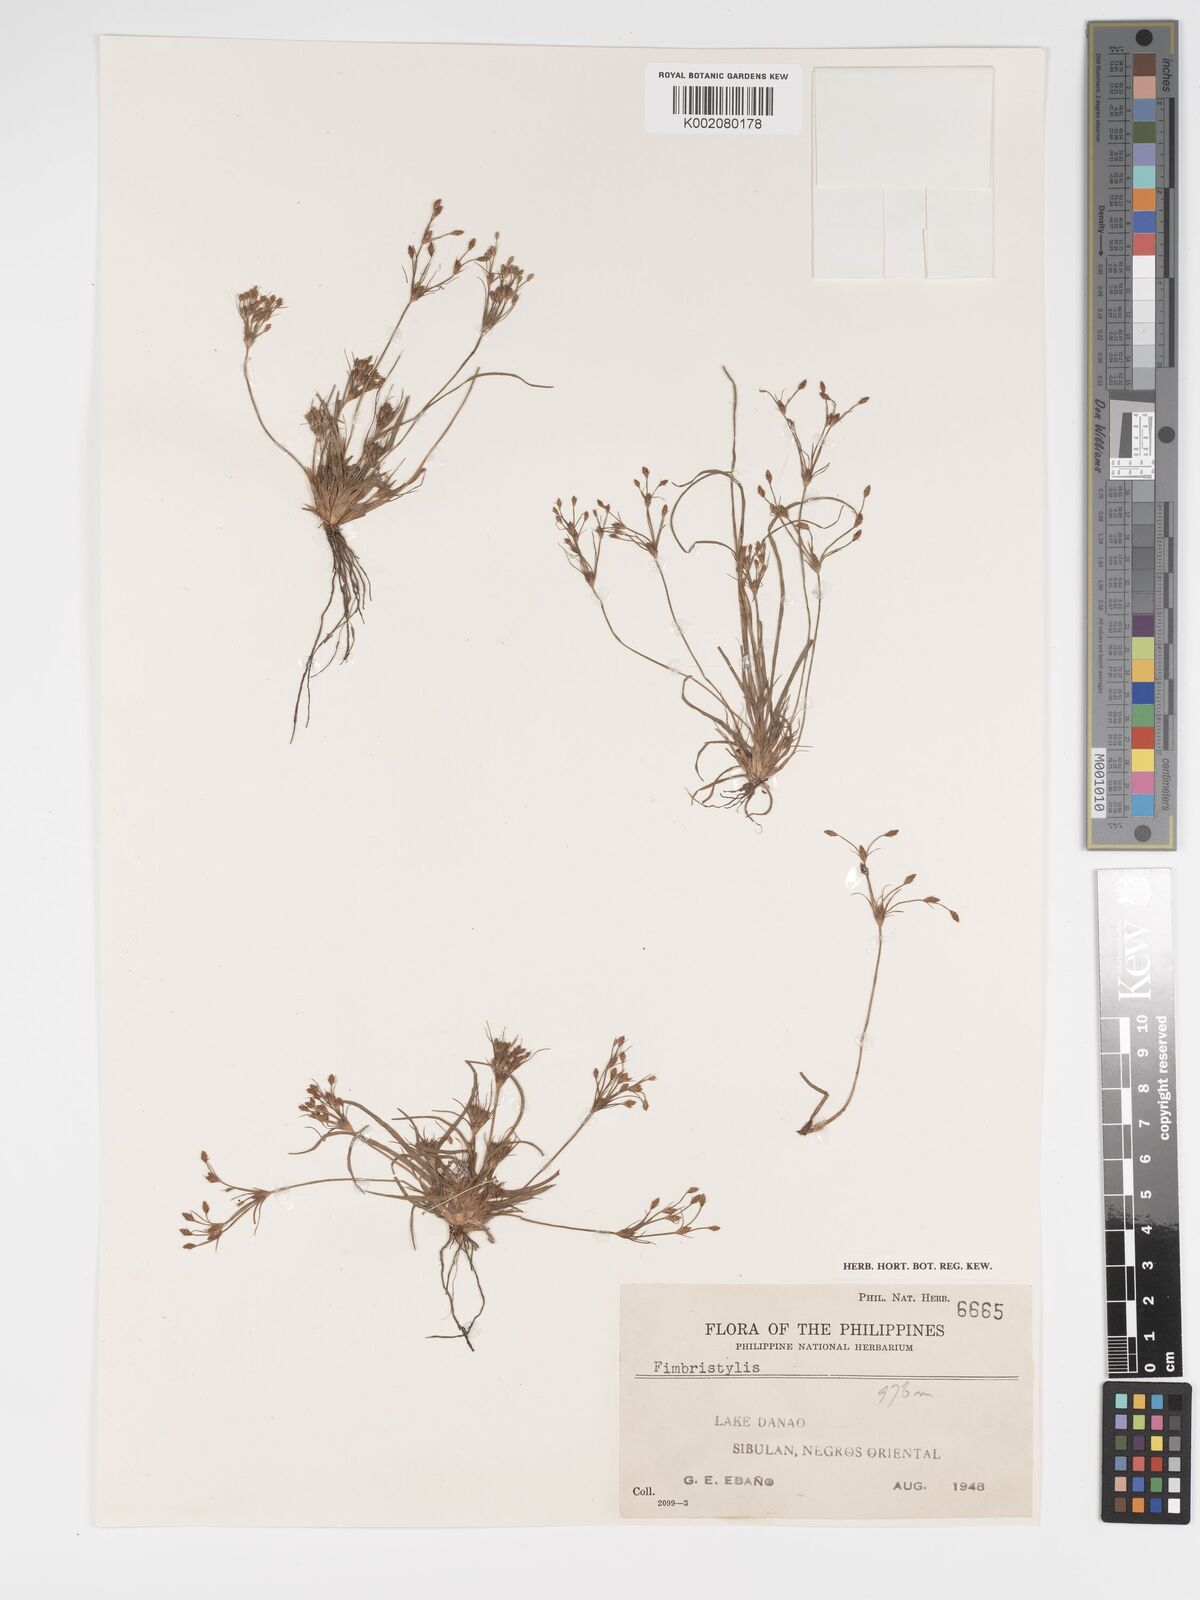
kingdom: Plantae
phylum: Tracheophyta
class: Liliopsida
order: Poales
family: Cyperaceae
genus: Fimbristylis
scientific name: Fimbristylis
